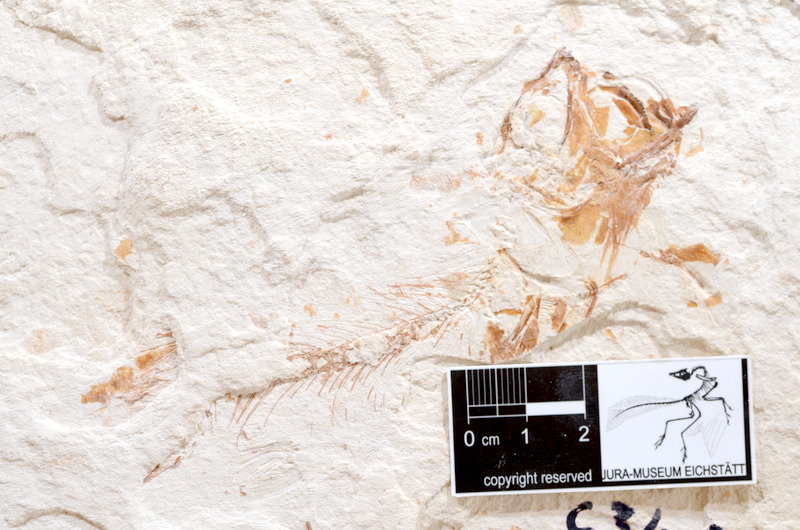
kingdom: Animalia
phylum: Chordata
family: Ascalaboidae
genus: Tharsis
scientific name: Tharsis dubius
